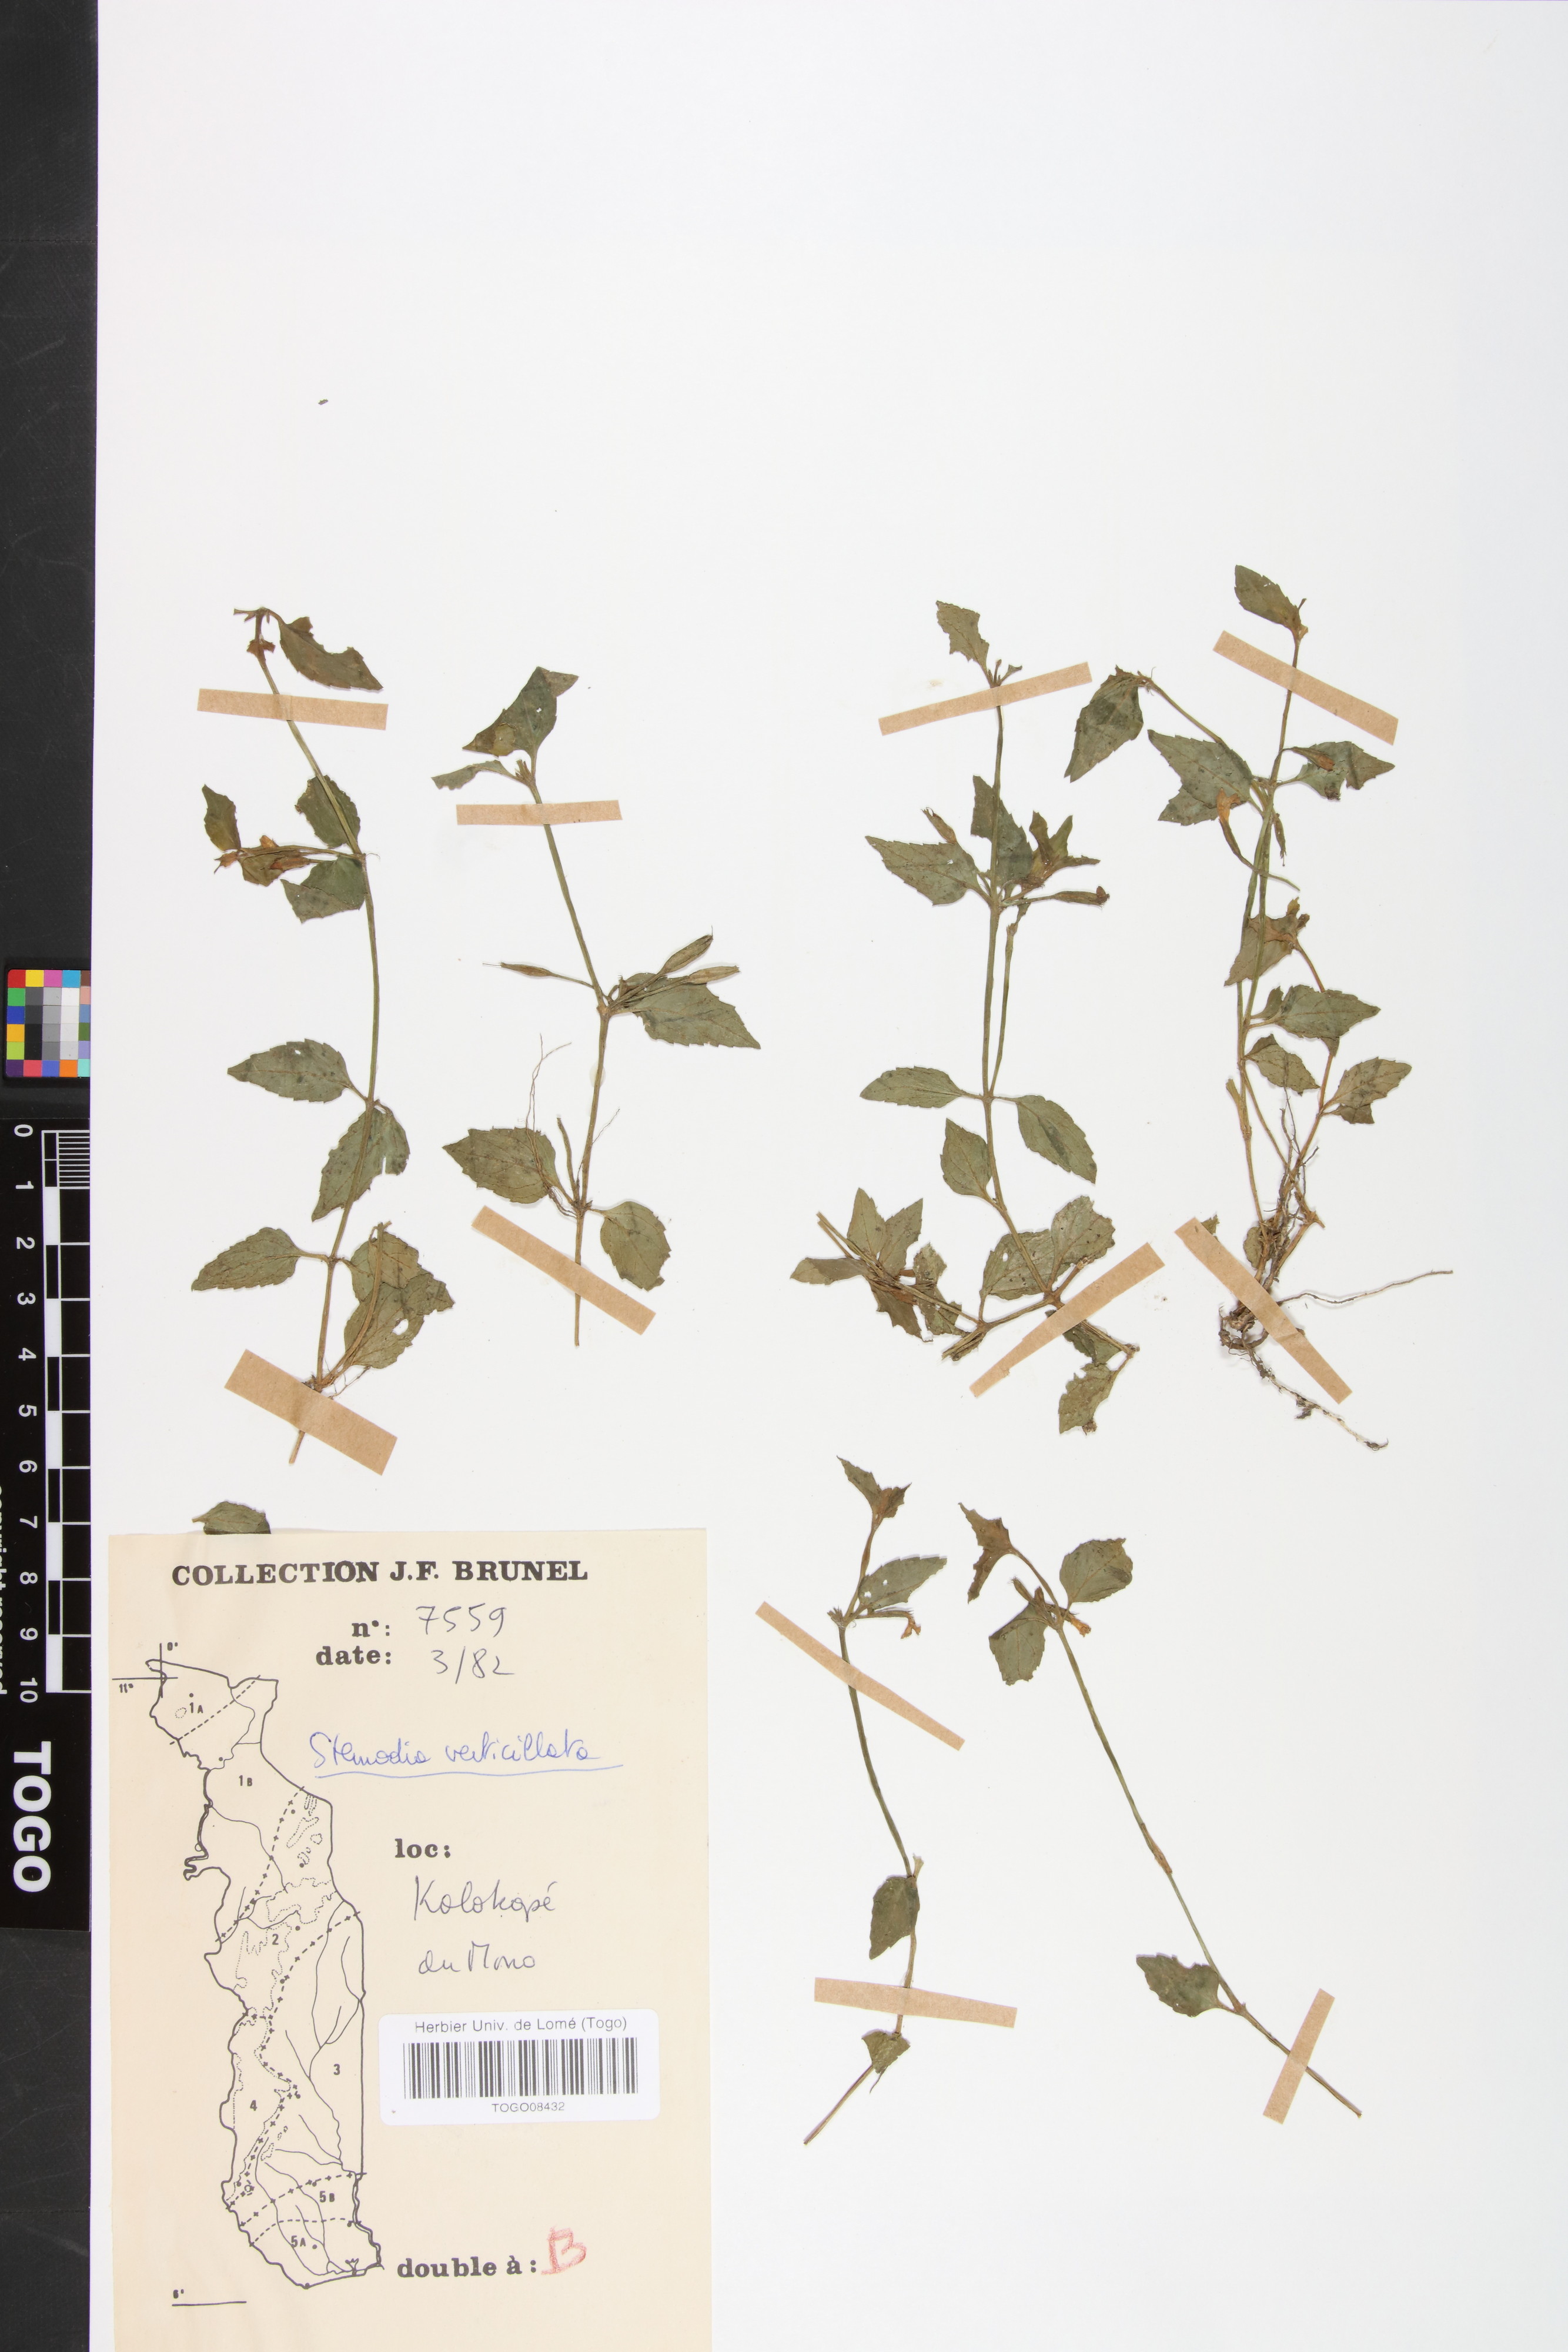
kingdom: Plantae
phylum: Tracheophyta
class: Magnoliopsida
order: Lamiales
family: Plantaginaceae
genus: Stemodia
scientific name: Stemodia verticillata
